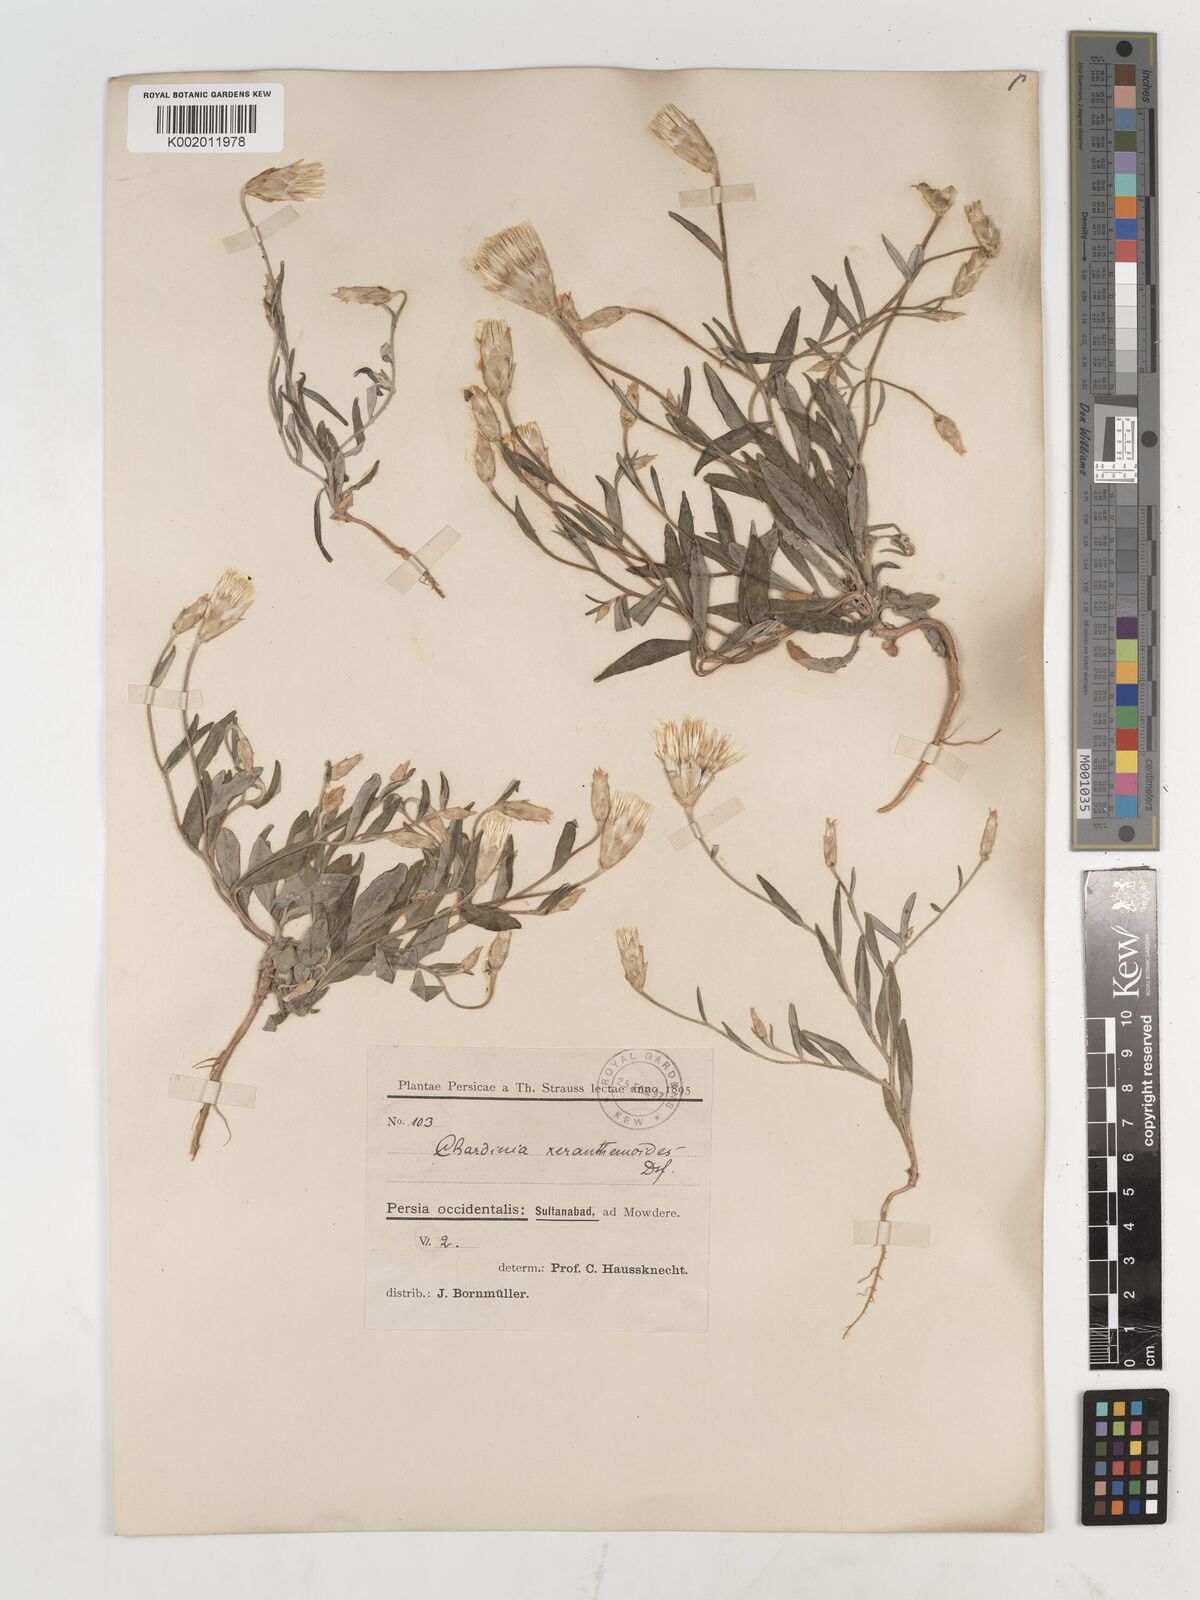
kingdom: Plantae
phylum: Tracheophyta
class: Magnoliopsida
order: Asterales
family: Asteraceae
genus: Chardinia
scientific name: Chardinia orientalis
